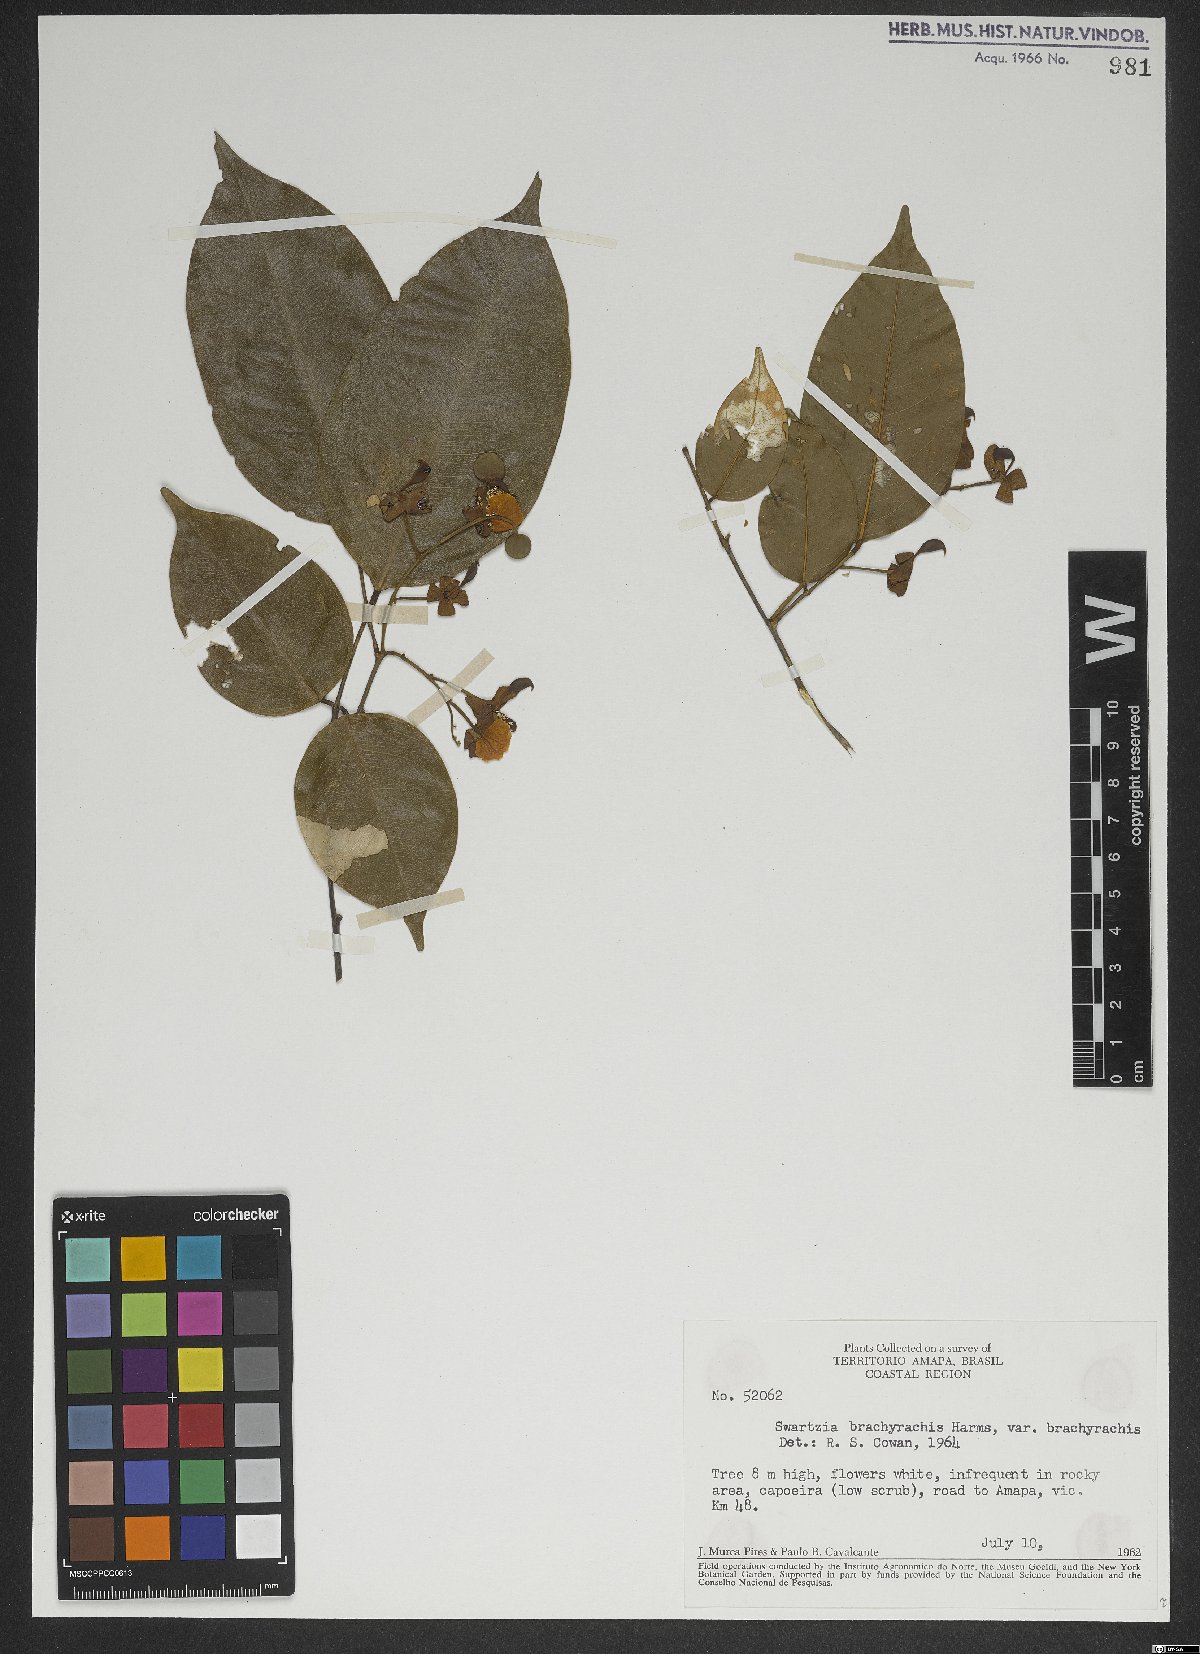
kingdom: Plantae
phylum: Tracheophyta
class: Magnoliopsida
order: Fabales
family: Fabaceae
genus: Swartzia
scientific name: Swartzia brachyrhachis
